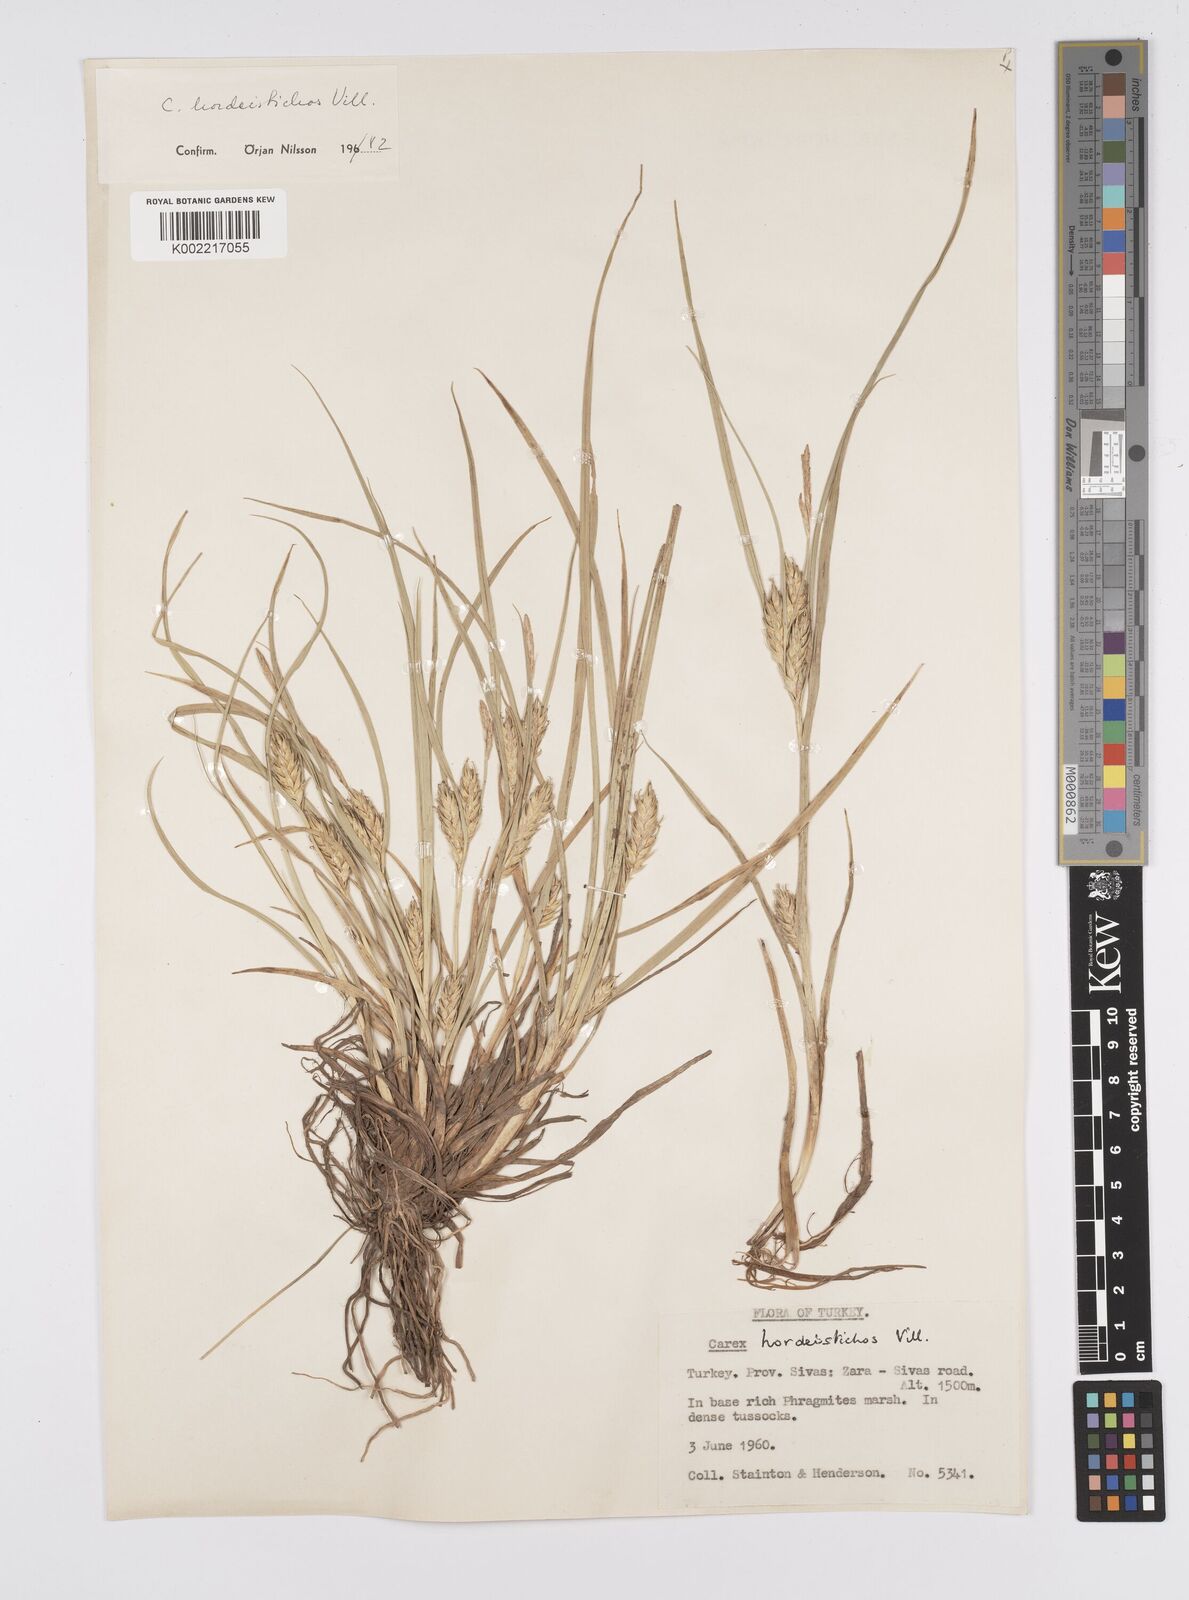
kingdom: Plantae
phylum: Tracheophyta
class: Liliopsida
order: Poales
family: Cyperaceae
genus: Carex
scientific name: Carex hordeistichos
